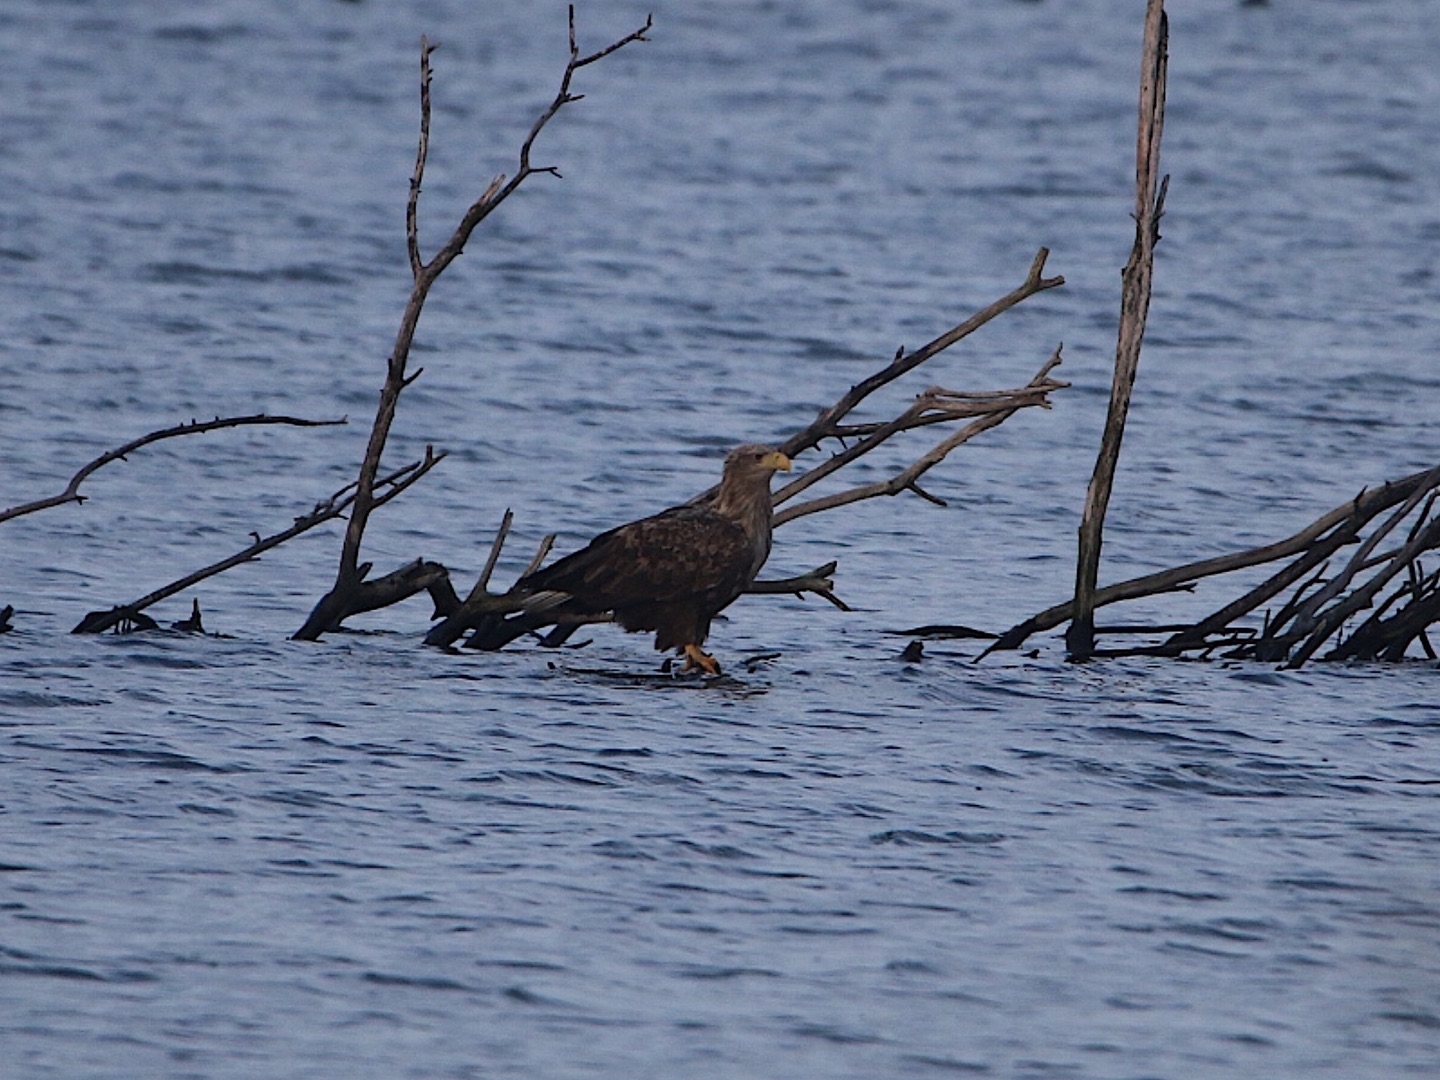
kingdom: Animalia
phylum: Chordata
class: Aves
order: Accipitriformes
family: Accipitridae
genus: Haliaeetus
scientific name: Haliaeetus albicilla
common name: Havørn
